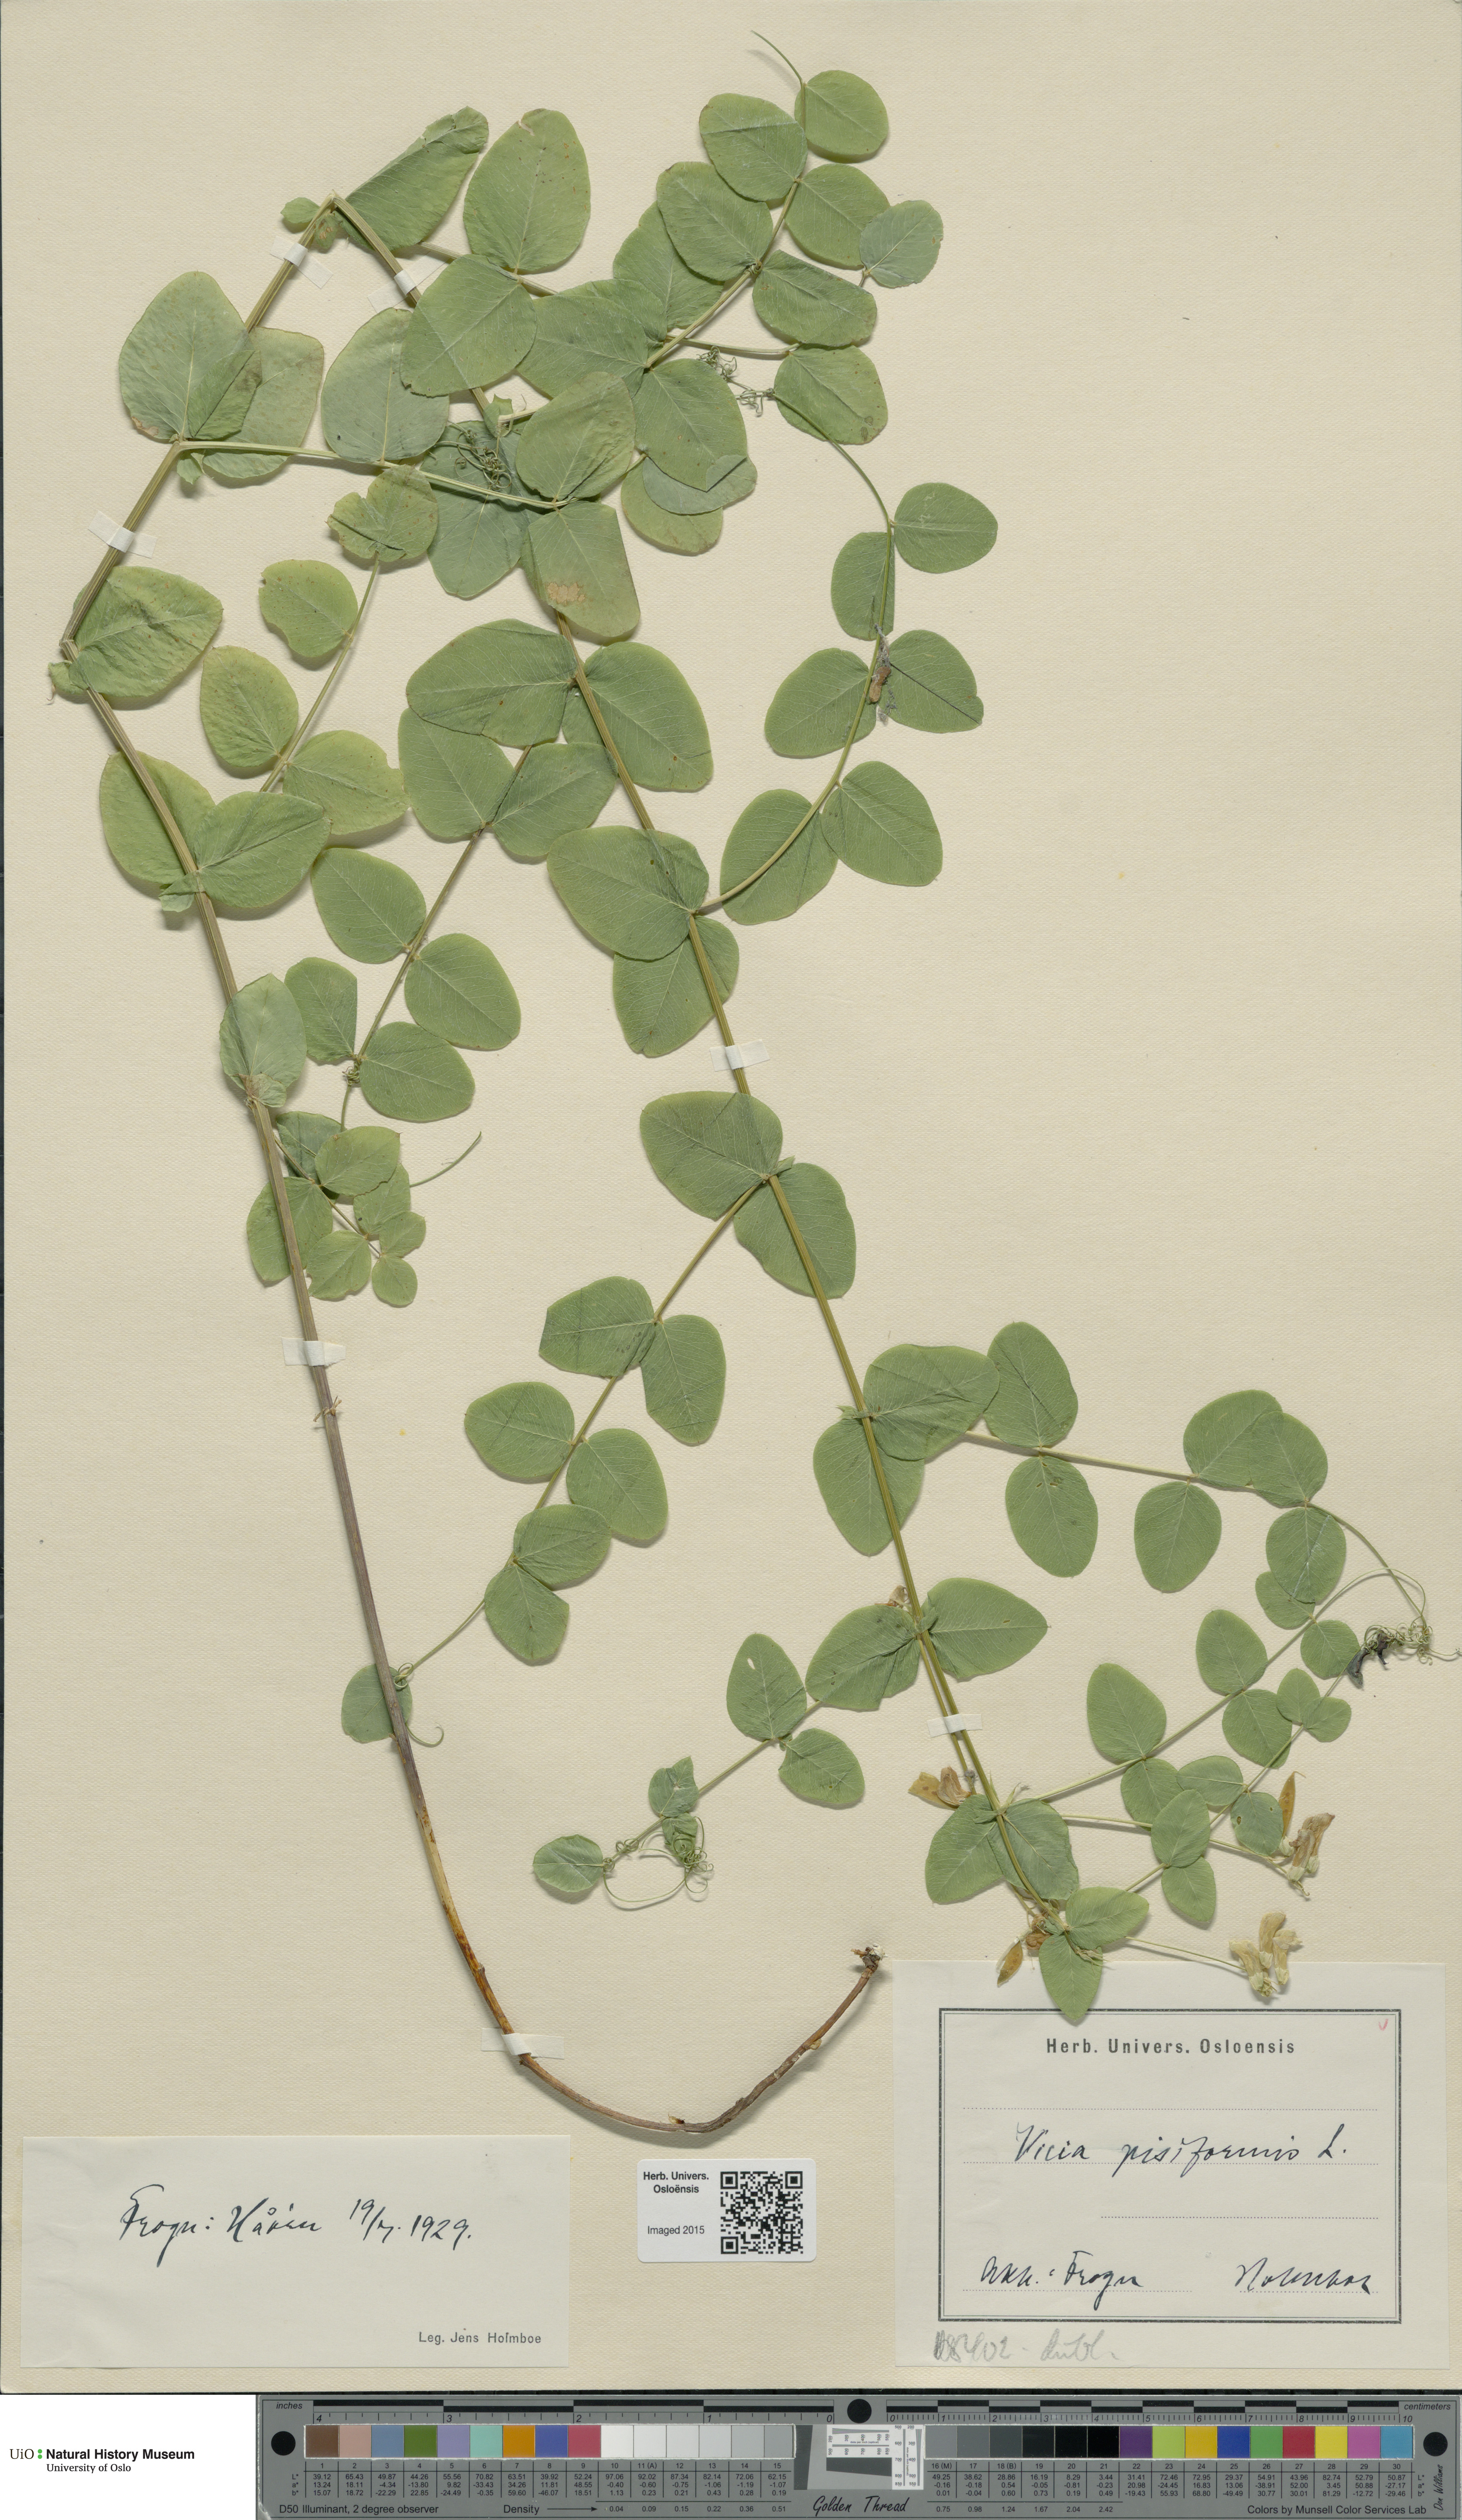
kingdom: Plantae
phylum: Tracheophyta
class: Magnoliopsida
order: Fabales
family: Fabaceae
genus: Vicia
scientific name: Vicia pisiformis
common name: Pale-flower vetch
